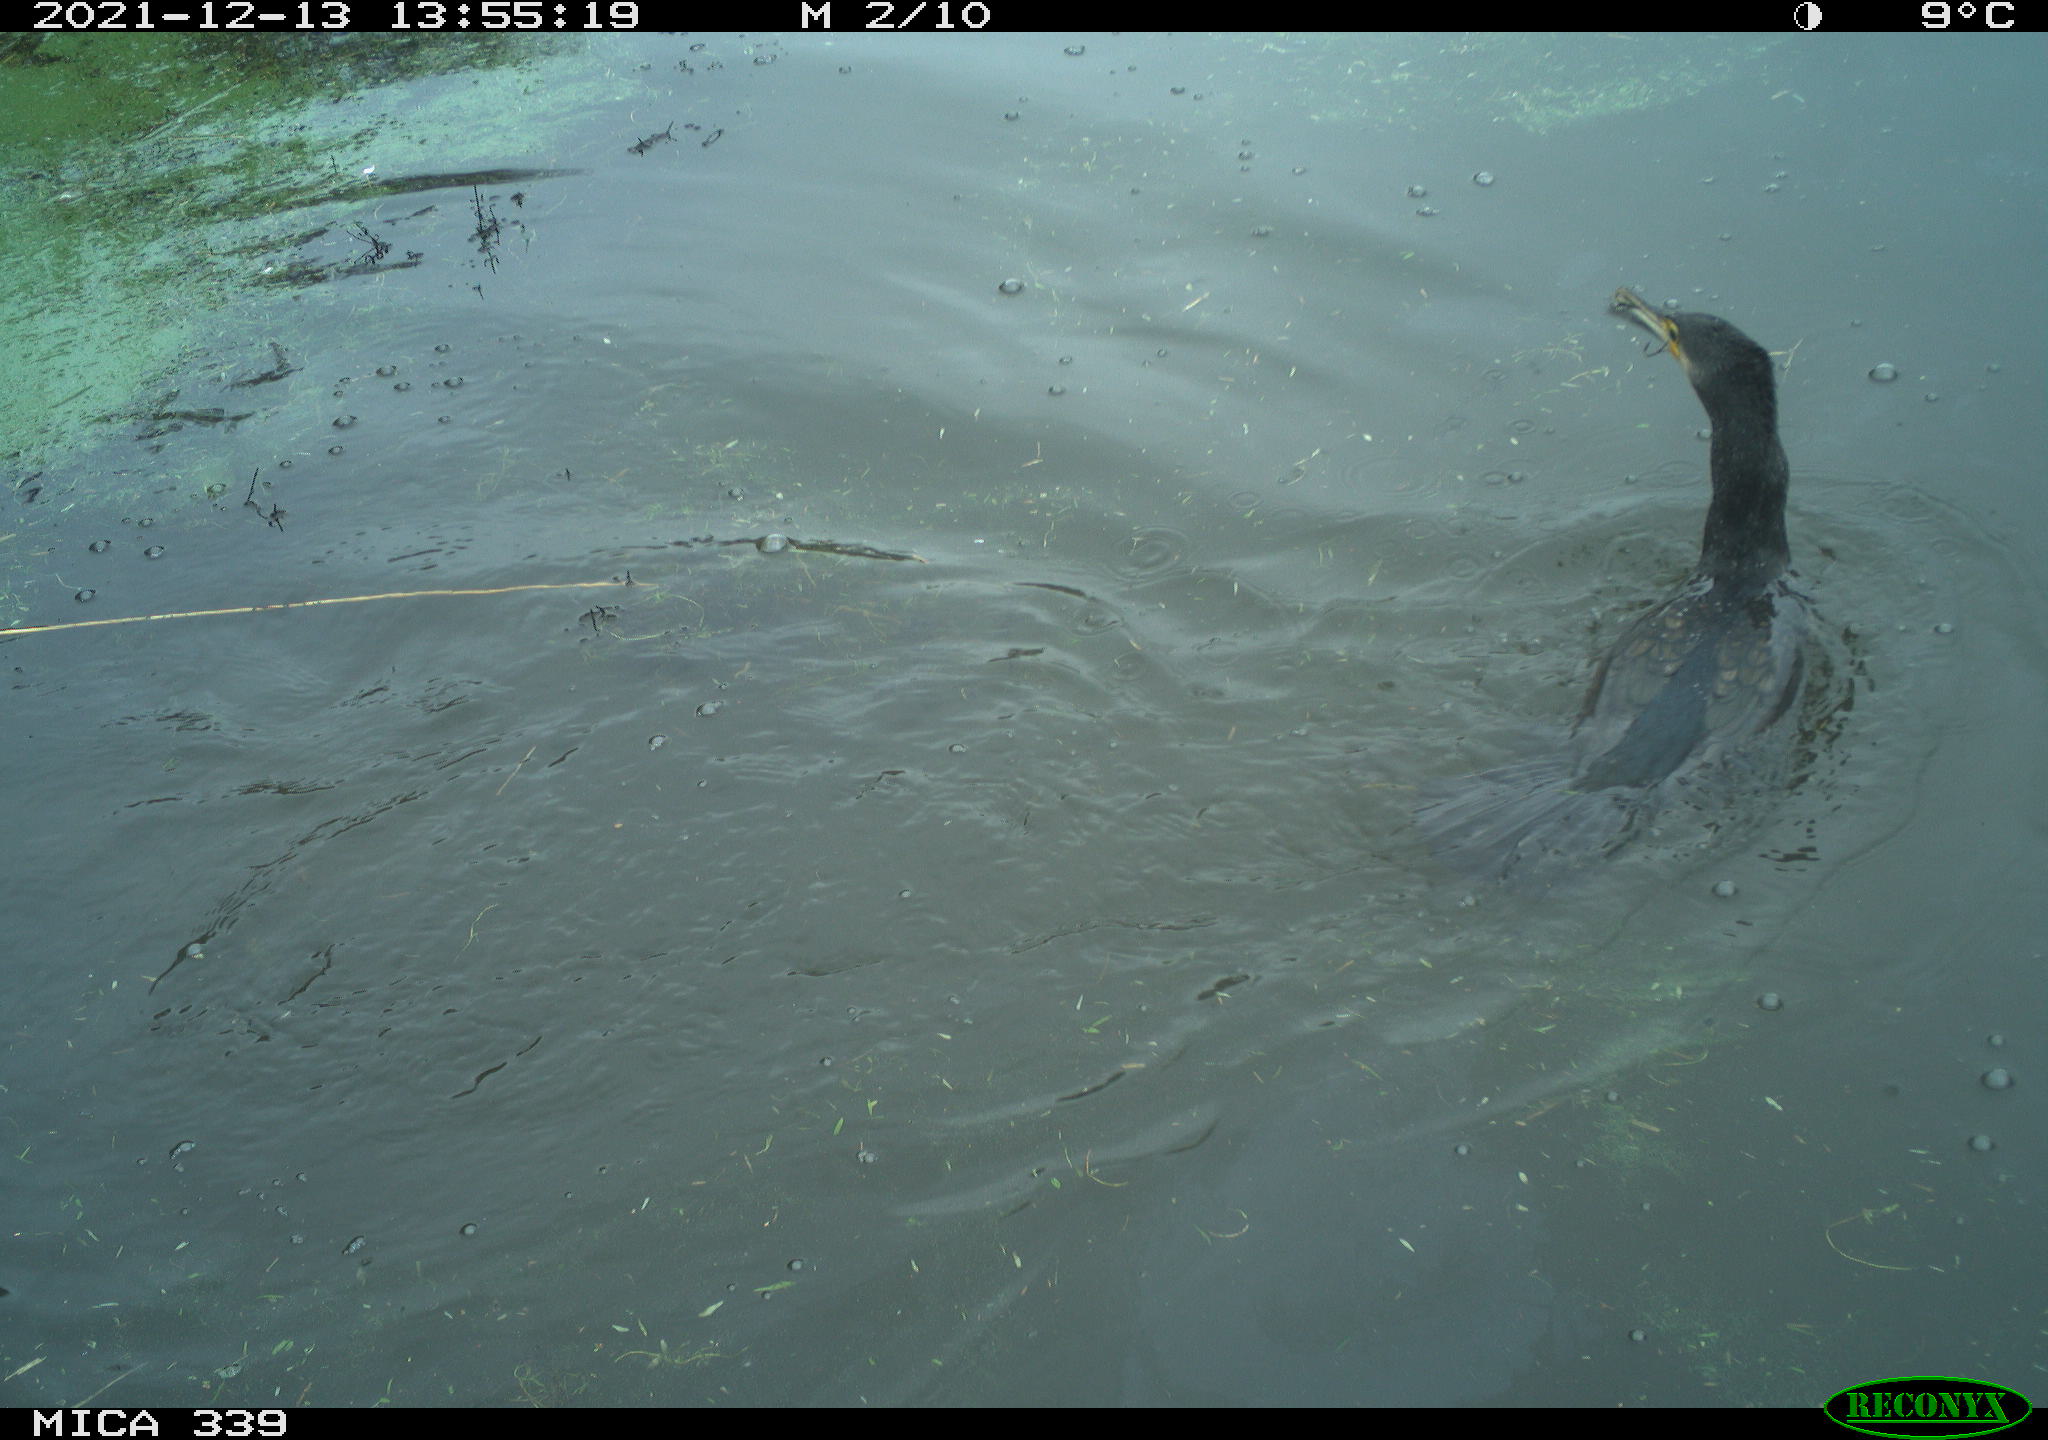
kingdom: Animalia
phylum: Chordata
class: Aves
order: Suliformes
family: Phalacrocoracidae
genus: Phalacrocorax
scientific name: Phalacrocorax carbo
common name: Great cormorant
